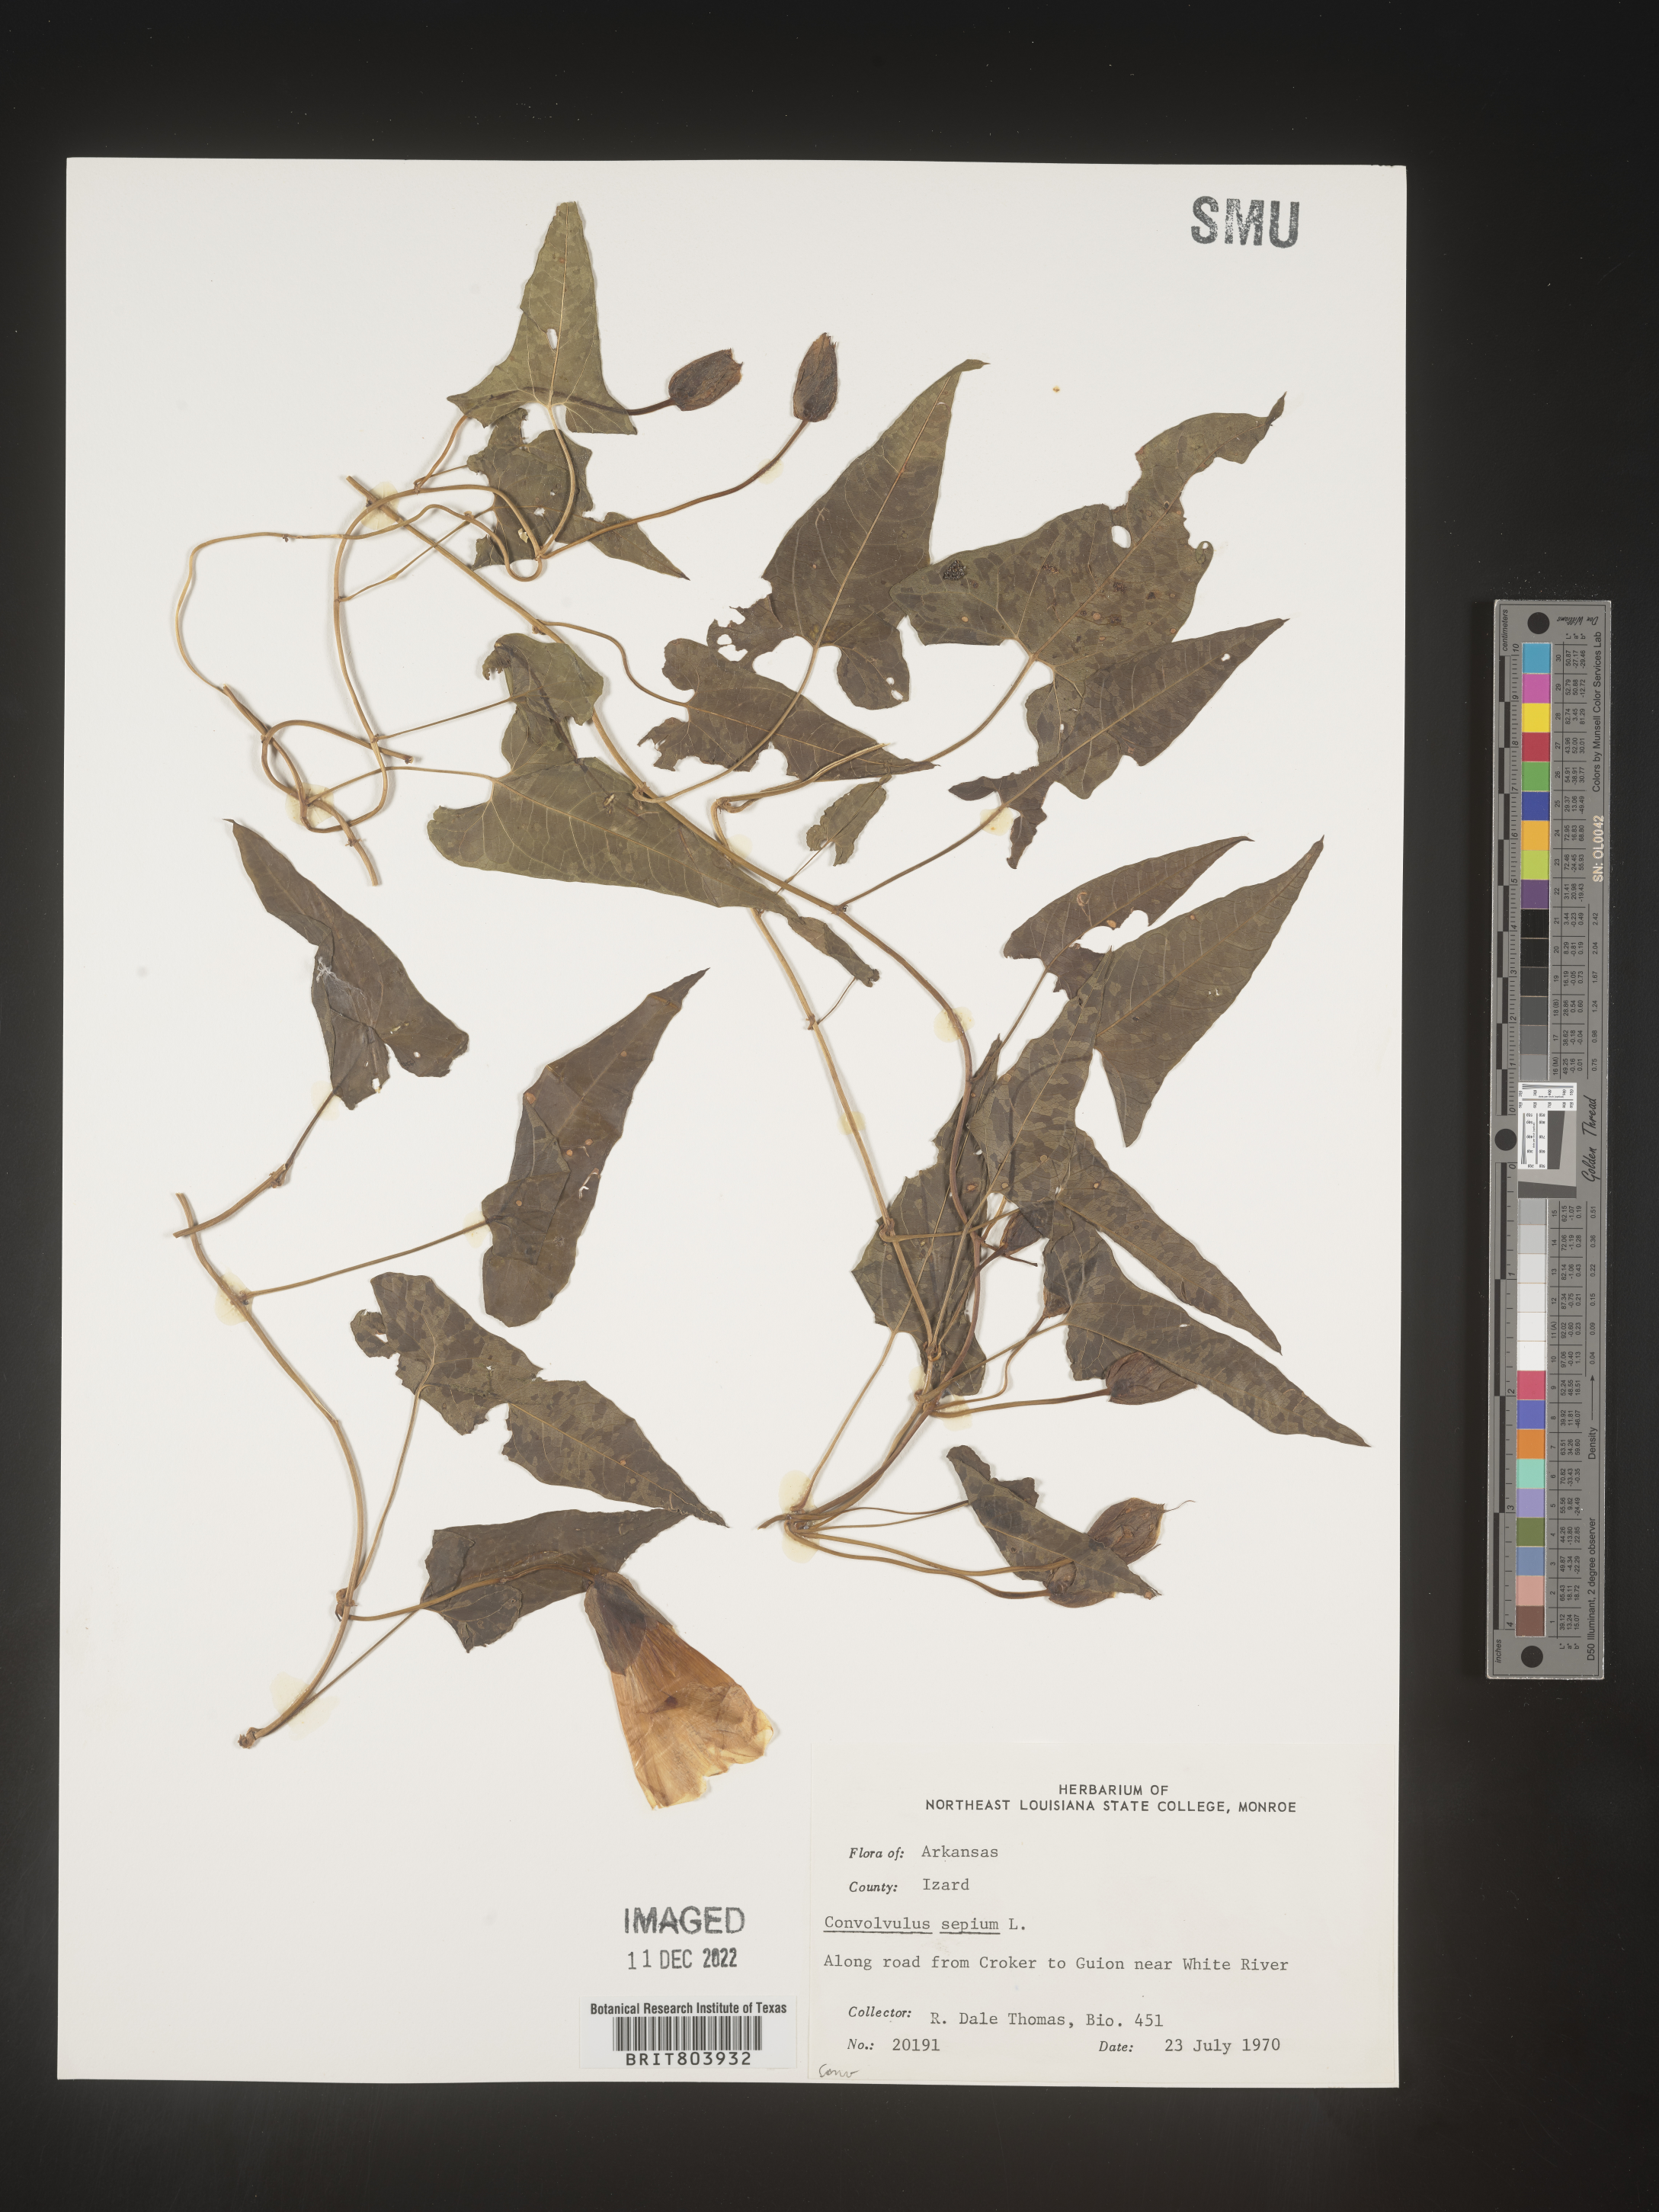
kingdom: Plantae
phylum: Tracheophyta
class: Magnoliopsida
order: Solanales
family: Convolvulaceae
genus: Calystegia
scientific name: Calystegia sepium
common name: Hedge bindweed
